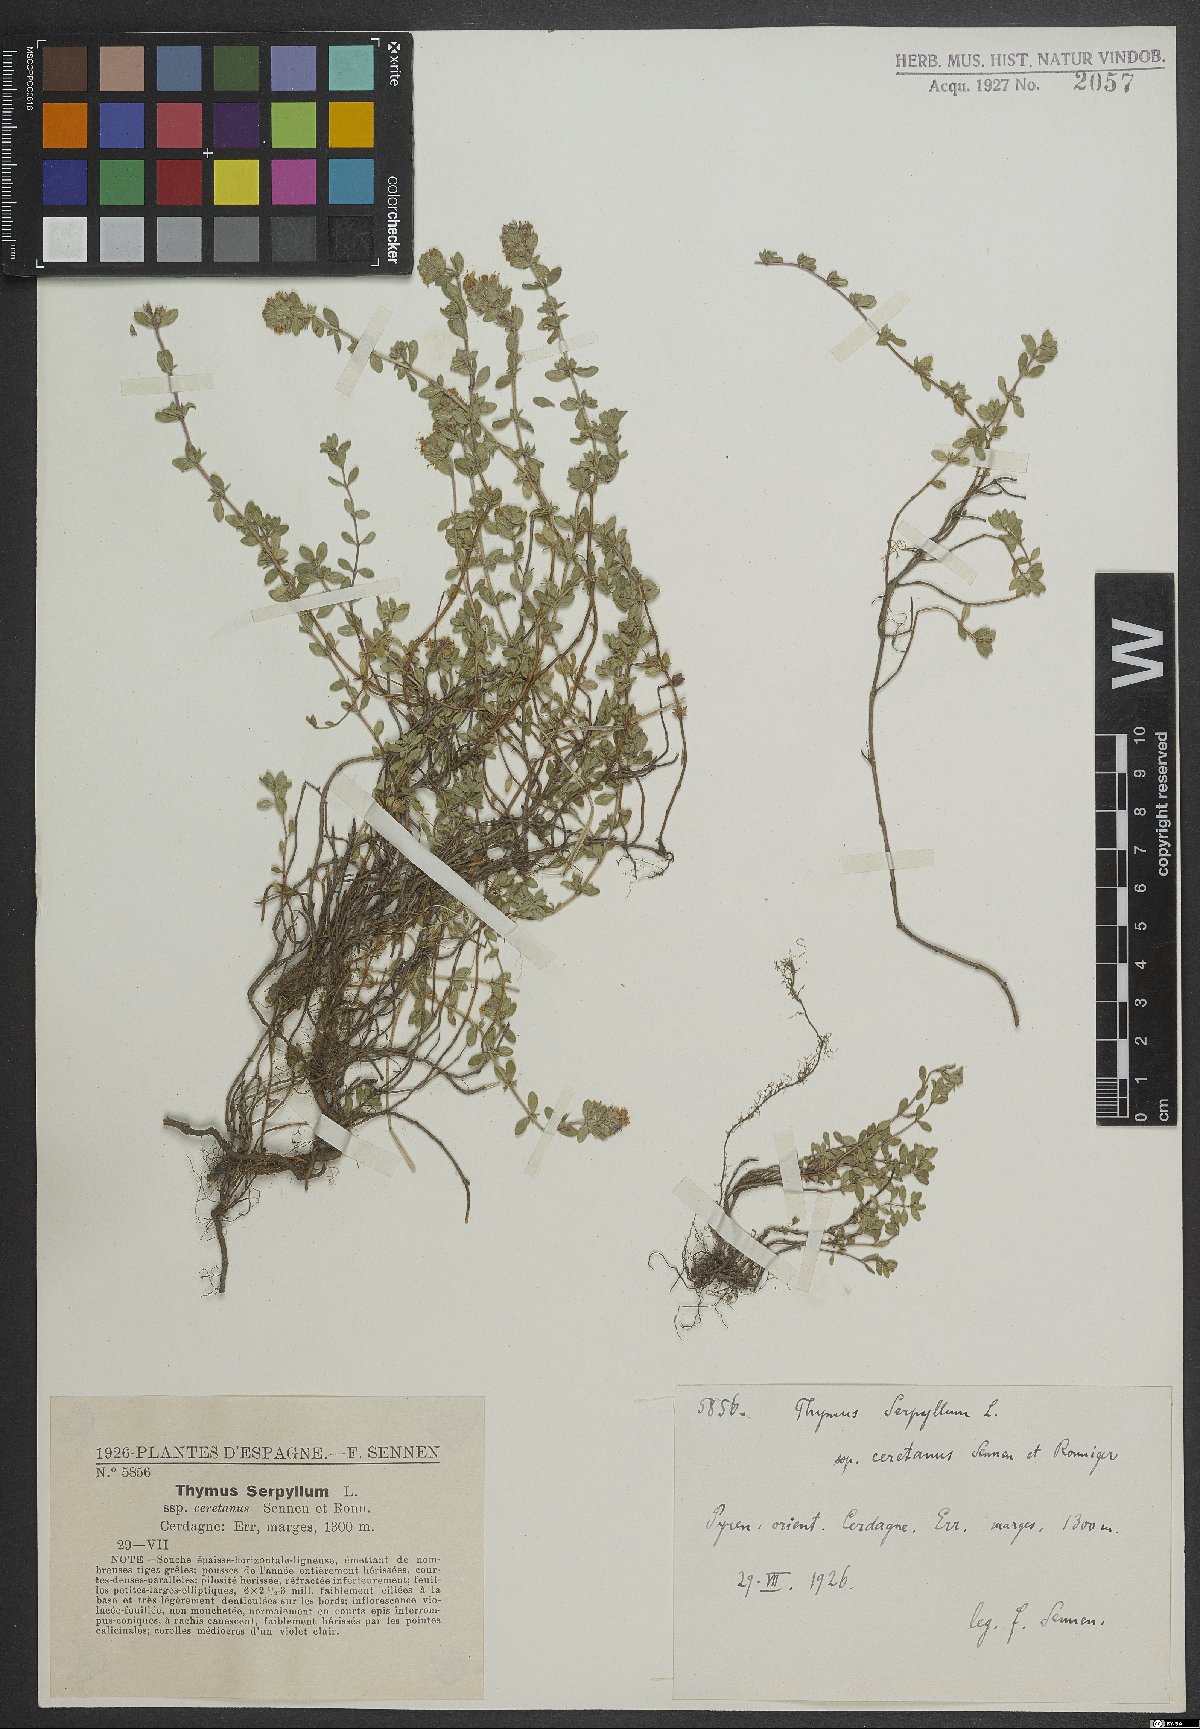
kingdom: Plantae
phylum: Tracheophyta
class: Magnoliopsida
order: Lamiales
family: Lamiaceae
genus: Thymus
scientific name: Thymus serpyllum
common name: Breckland thyme
